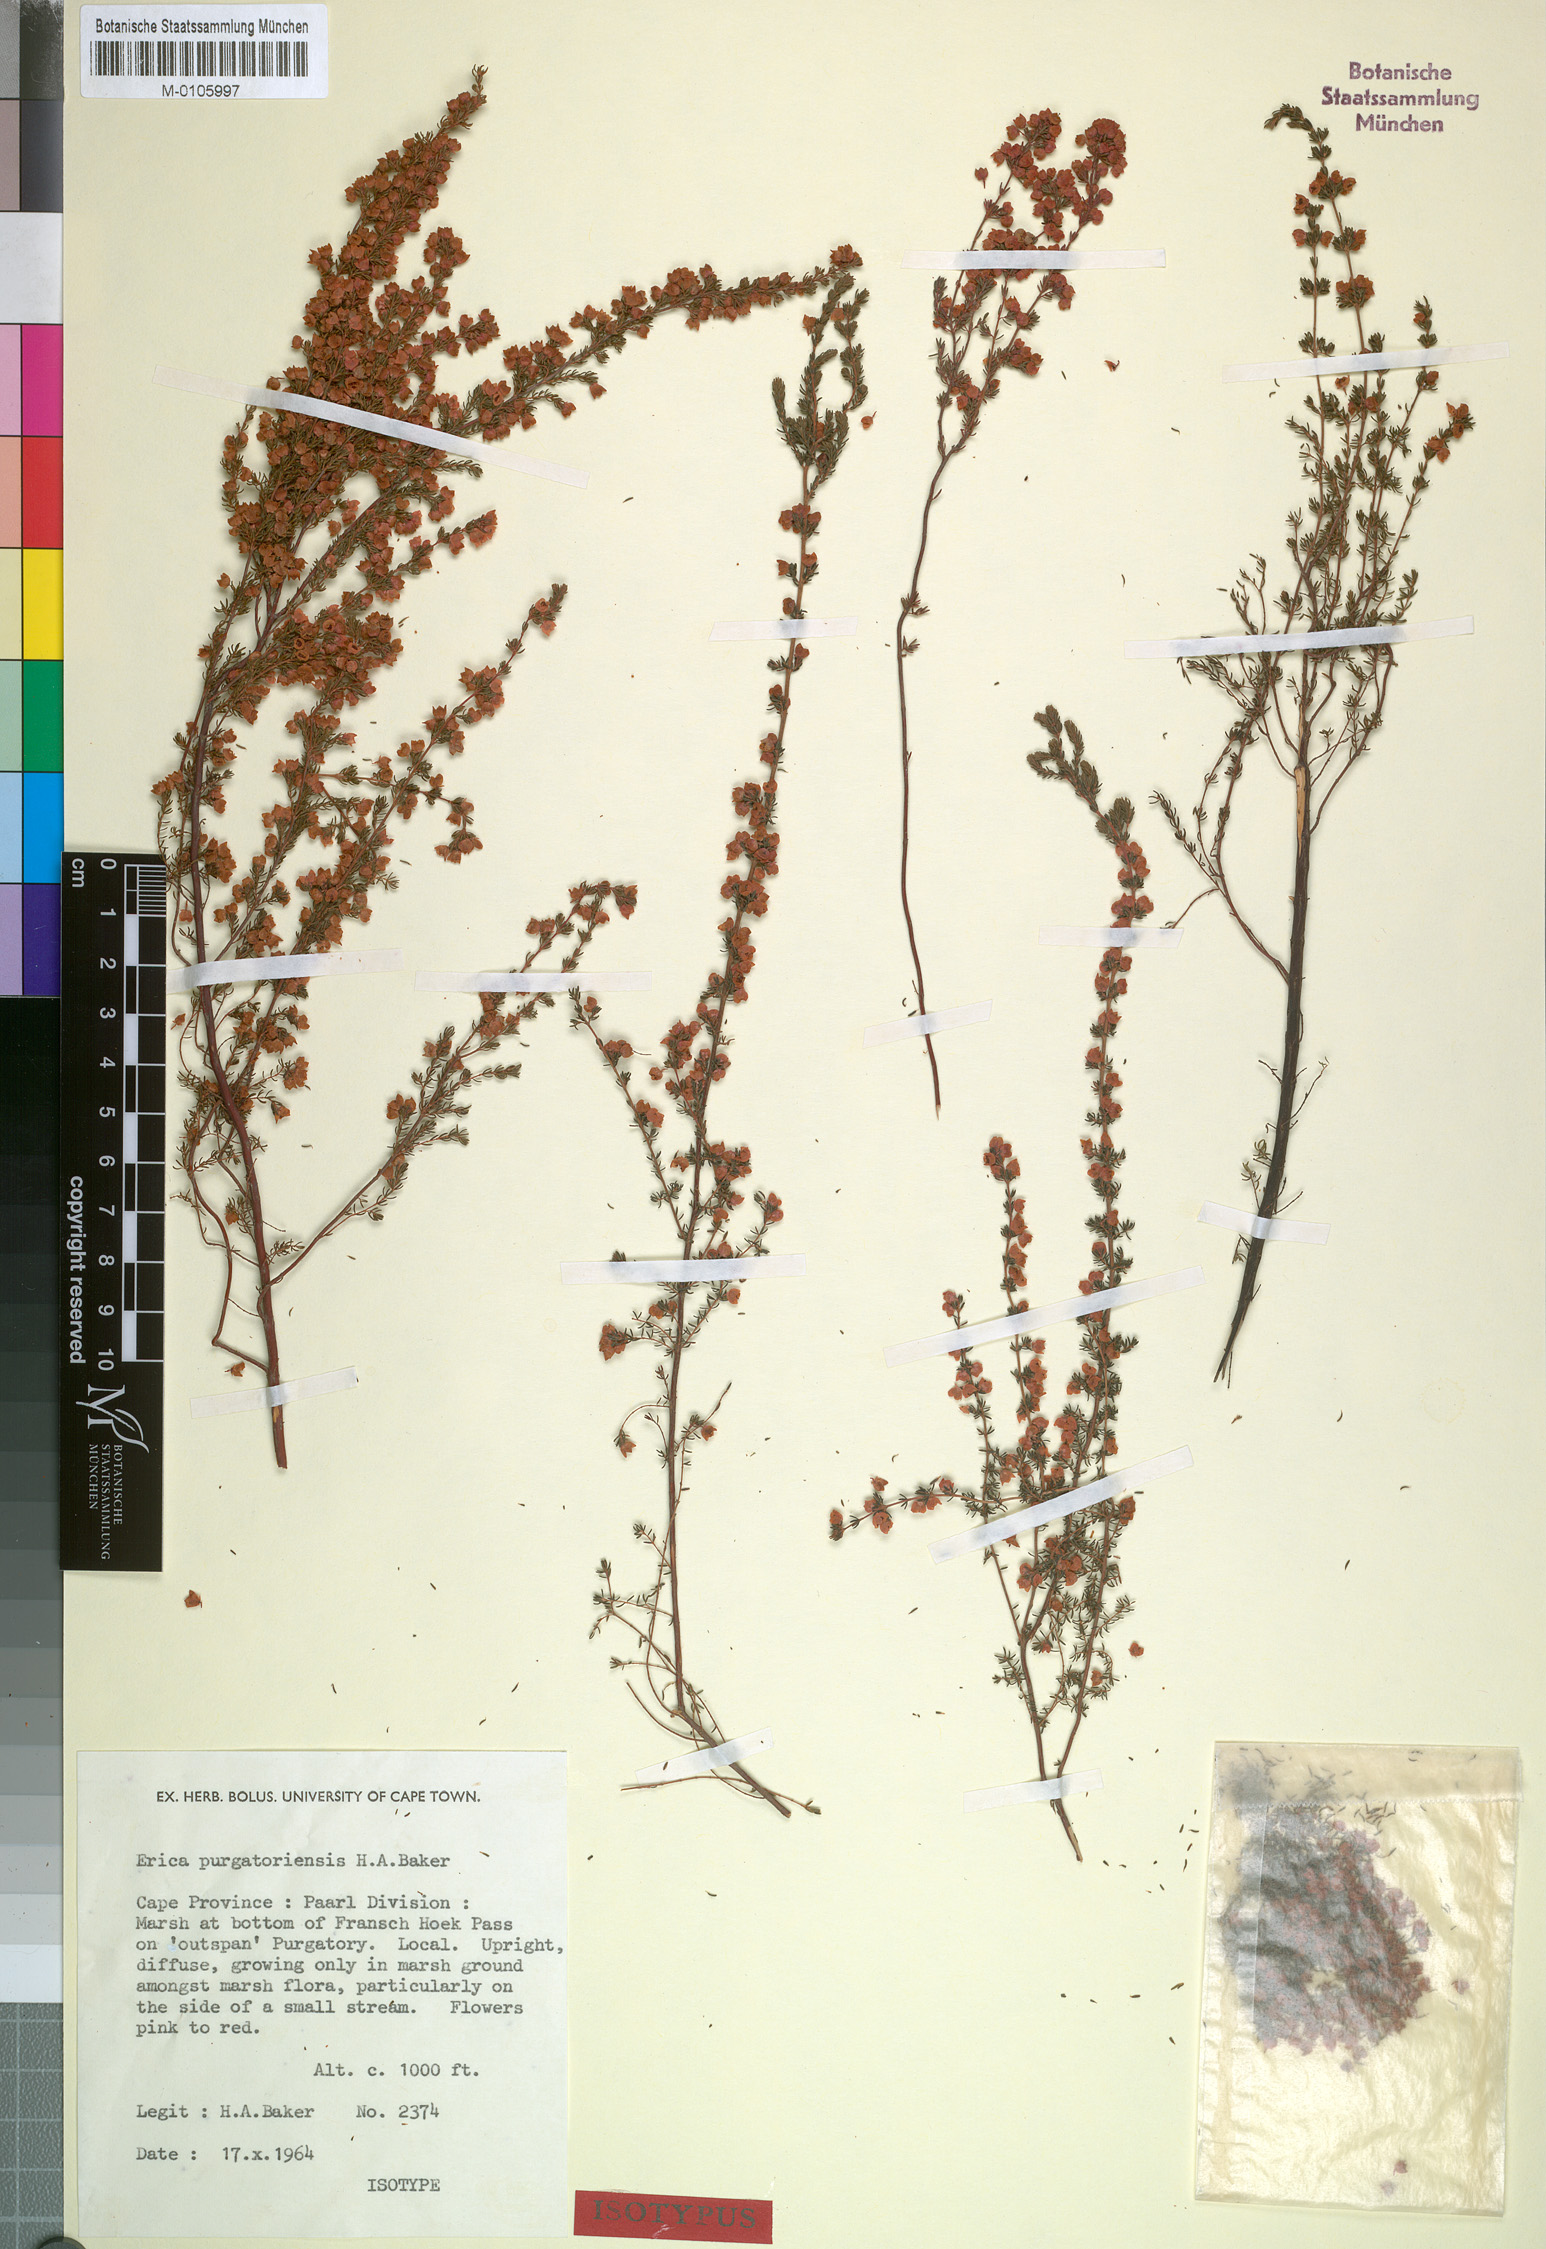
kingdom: Plantae
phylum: Tracheophyta
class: Magnoliopsida
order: Ericales
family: Ericaceae
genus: Erica
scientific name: Erica purgatoriensis
